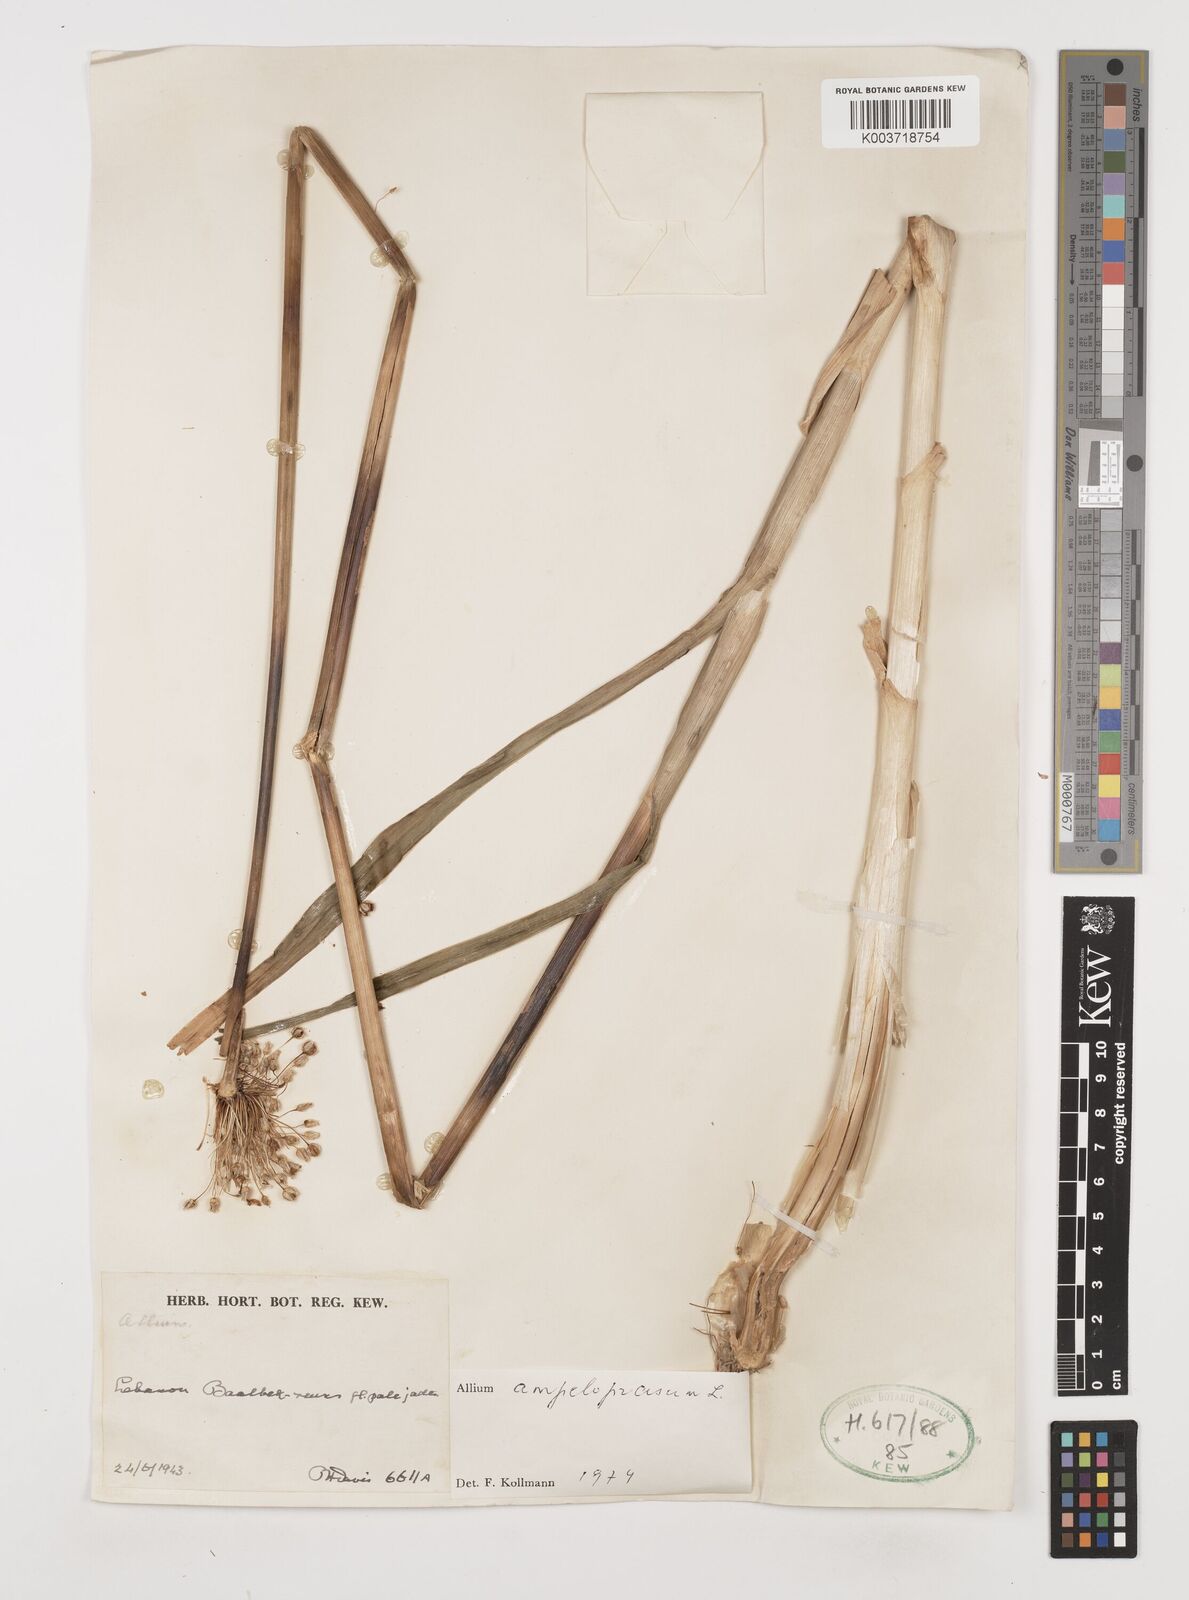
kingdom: Plantae
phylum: Tracheophyta
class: Liliopsida
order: Asparagales
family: Amaryllidaceae
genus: Allium
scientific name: Allium rotundum
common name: Sand leek
